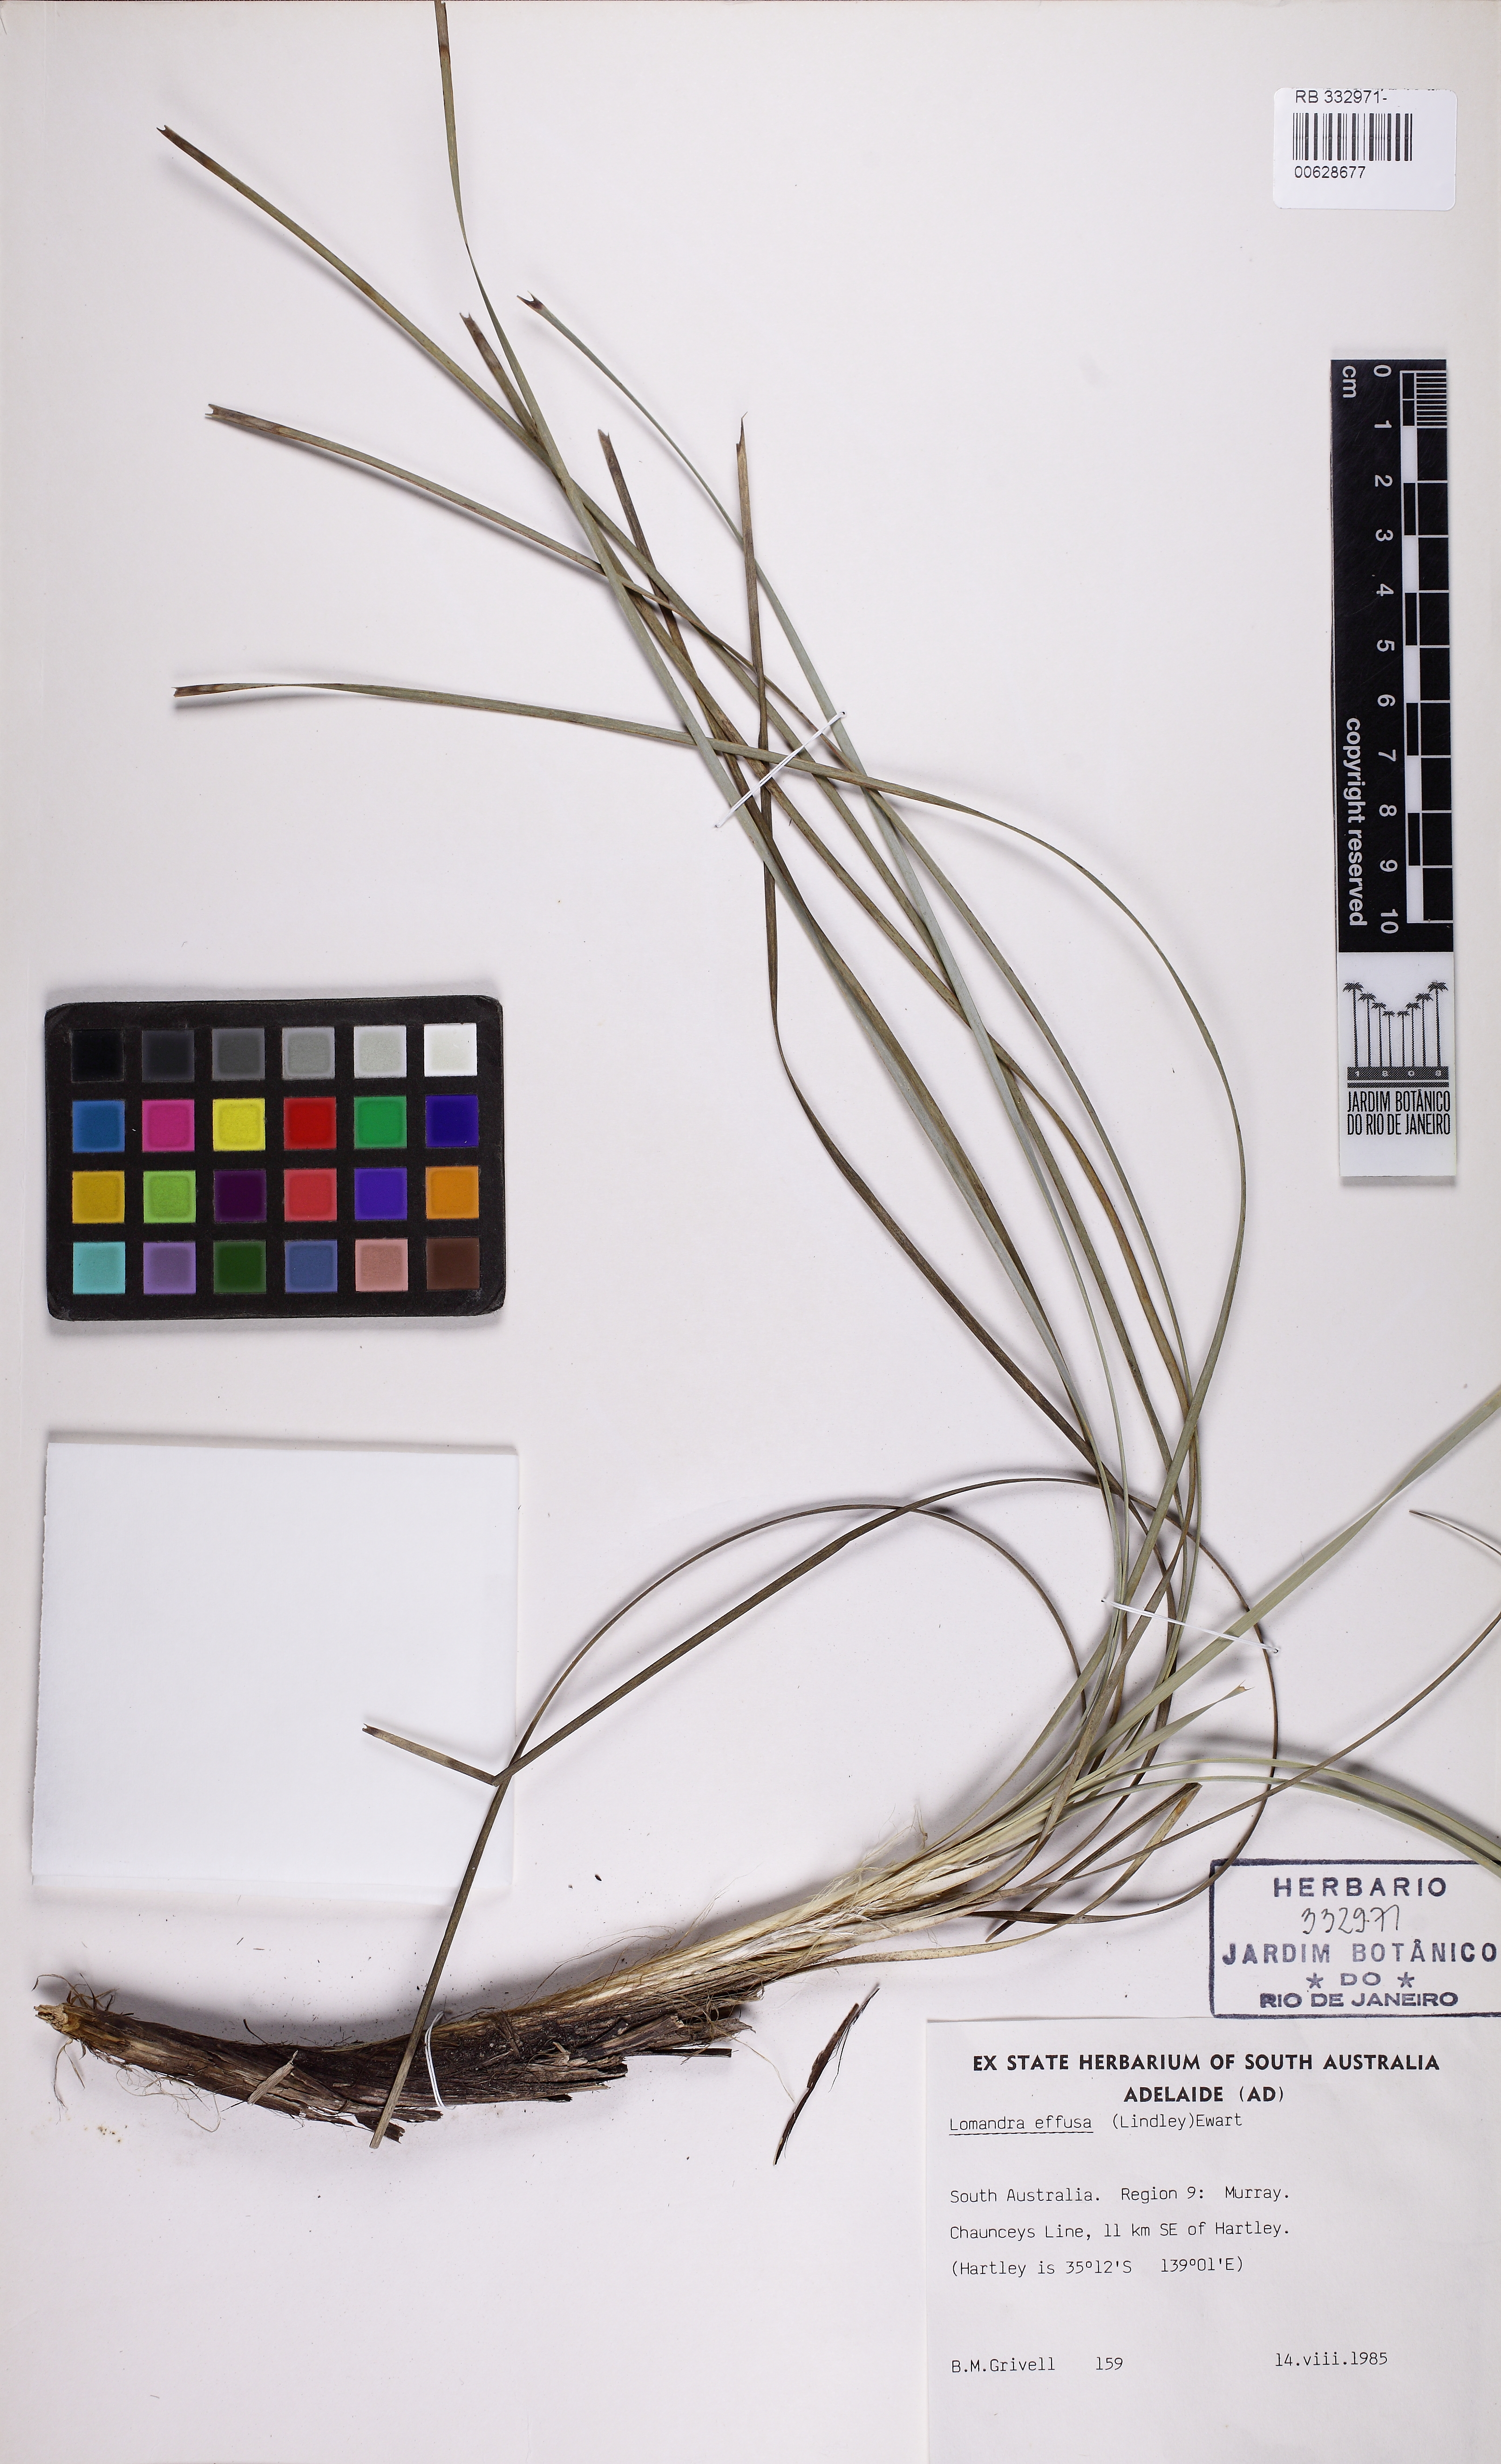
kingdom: Plantae
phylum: Tracheophyta
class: Liliopsida
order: Asparagales
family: Asparagaceae
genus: Lomandra
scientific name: Lomandra effusa
